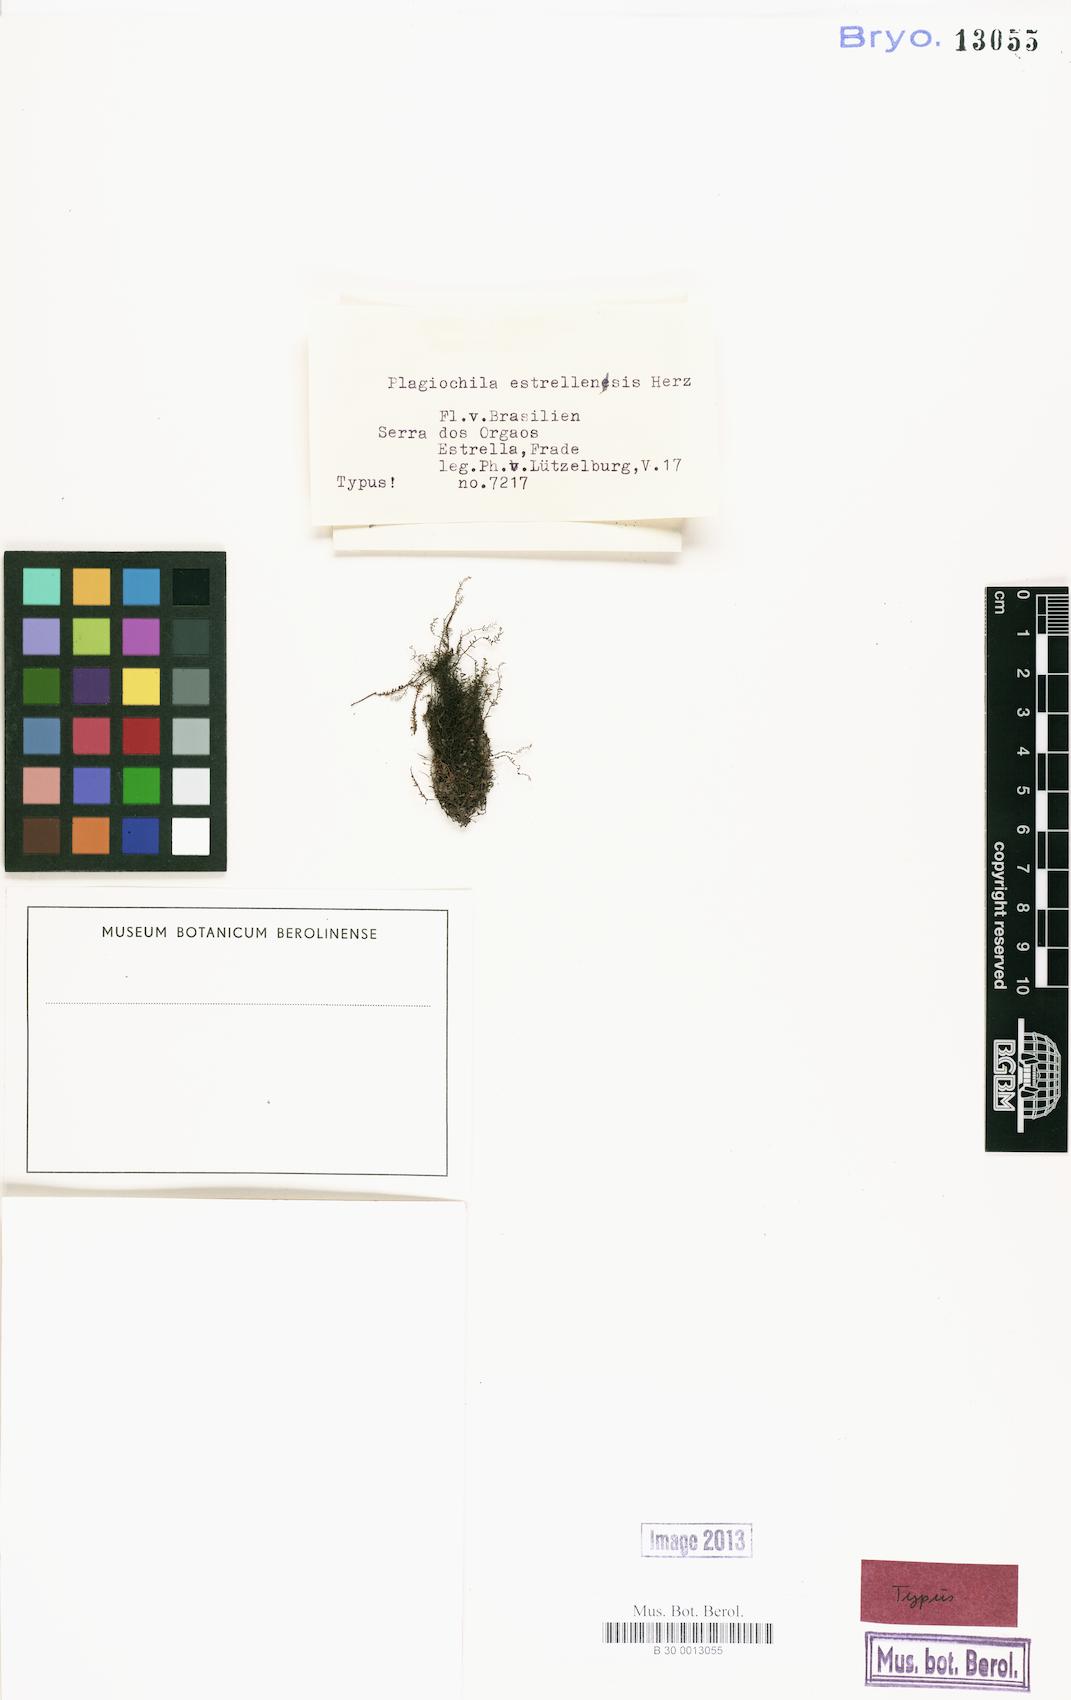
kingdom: Plantae
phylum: Marchantiophyta
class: Jungermanniopsida
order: Jungermanniales
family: Plagiochilaceae
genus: Plagiochila
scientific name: Plagiochila estrellensis
